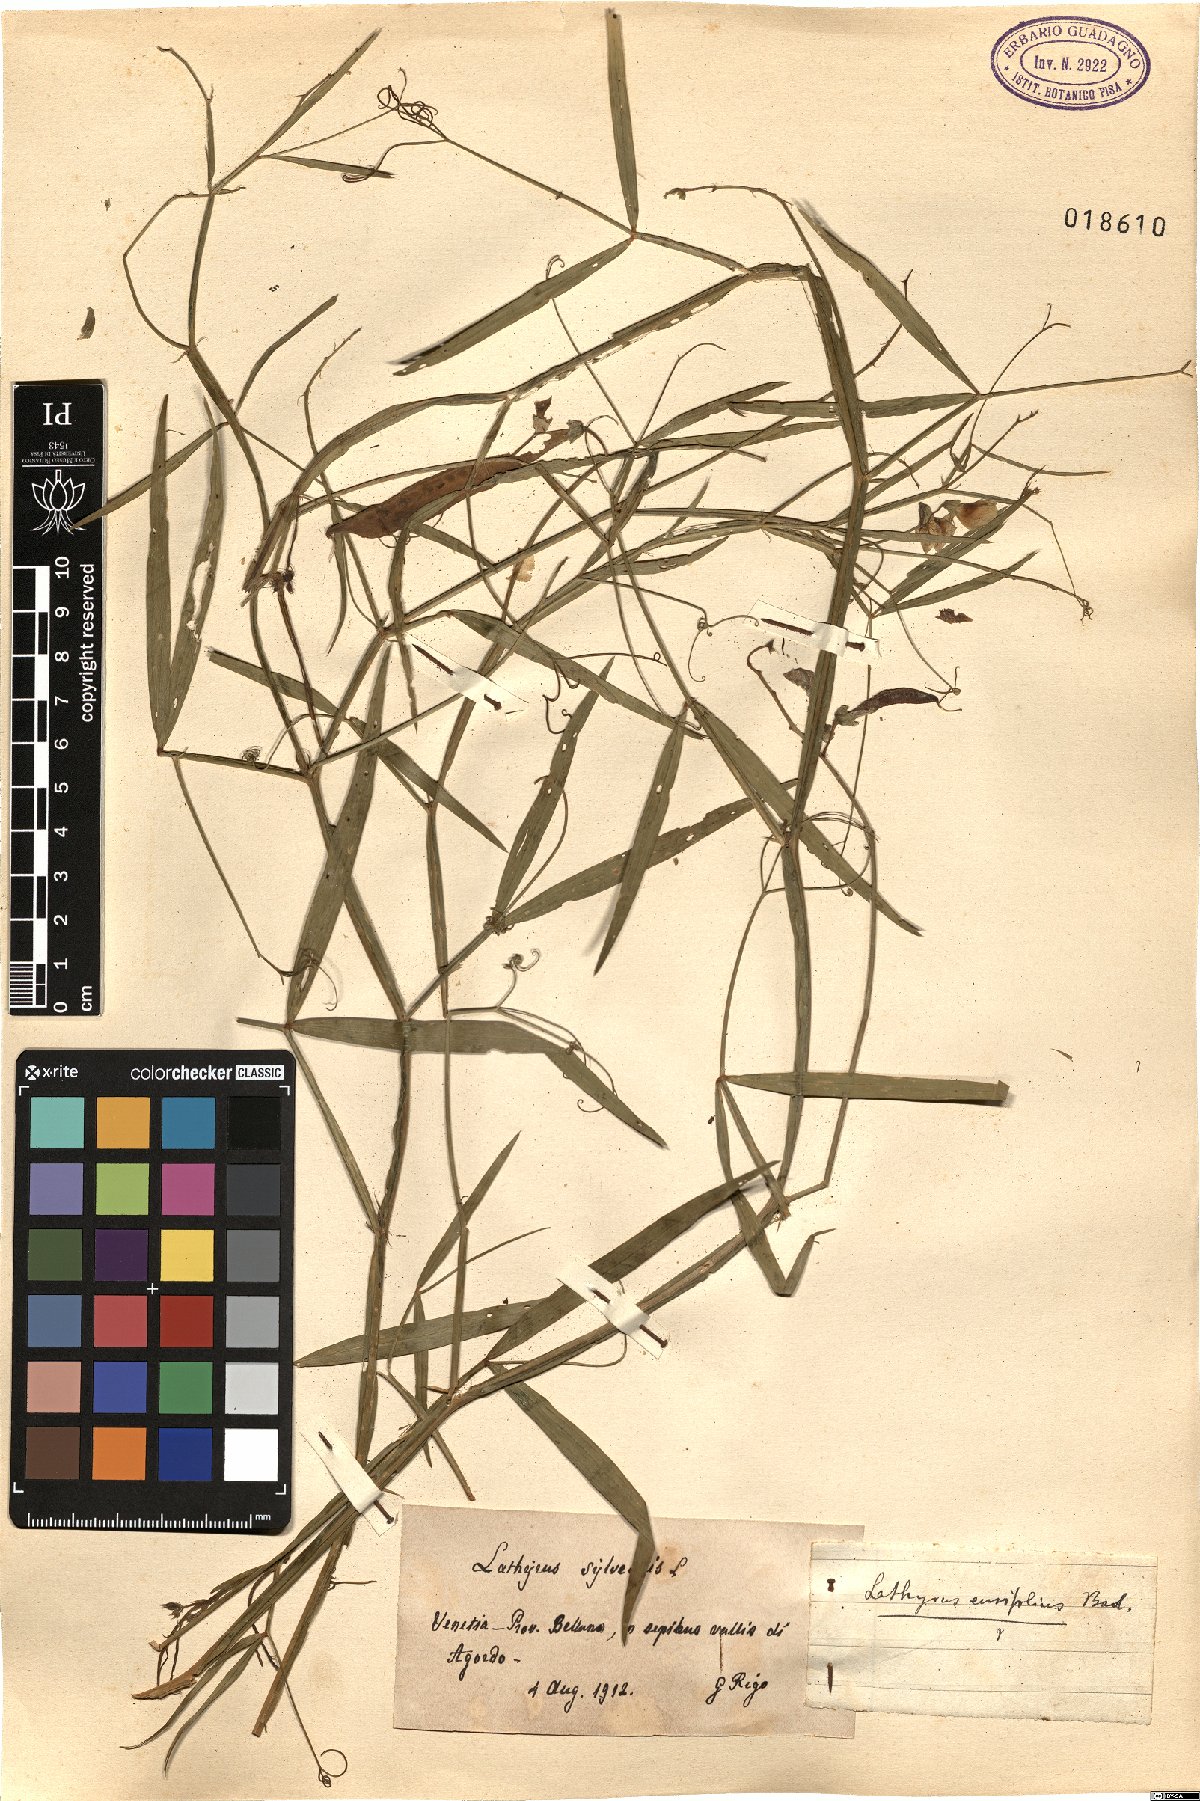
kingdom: Plantae
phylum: Tracheophyta
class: Magnoliopsida
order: Fabales
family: Fabaceae
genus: Lathyrus
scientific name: Lathyrus
